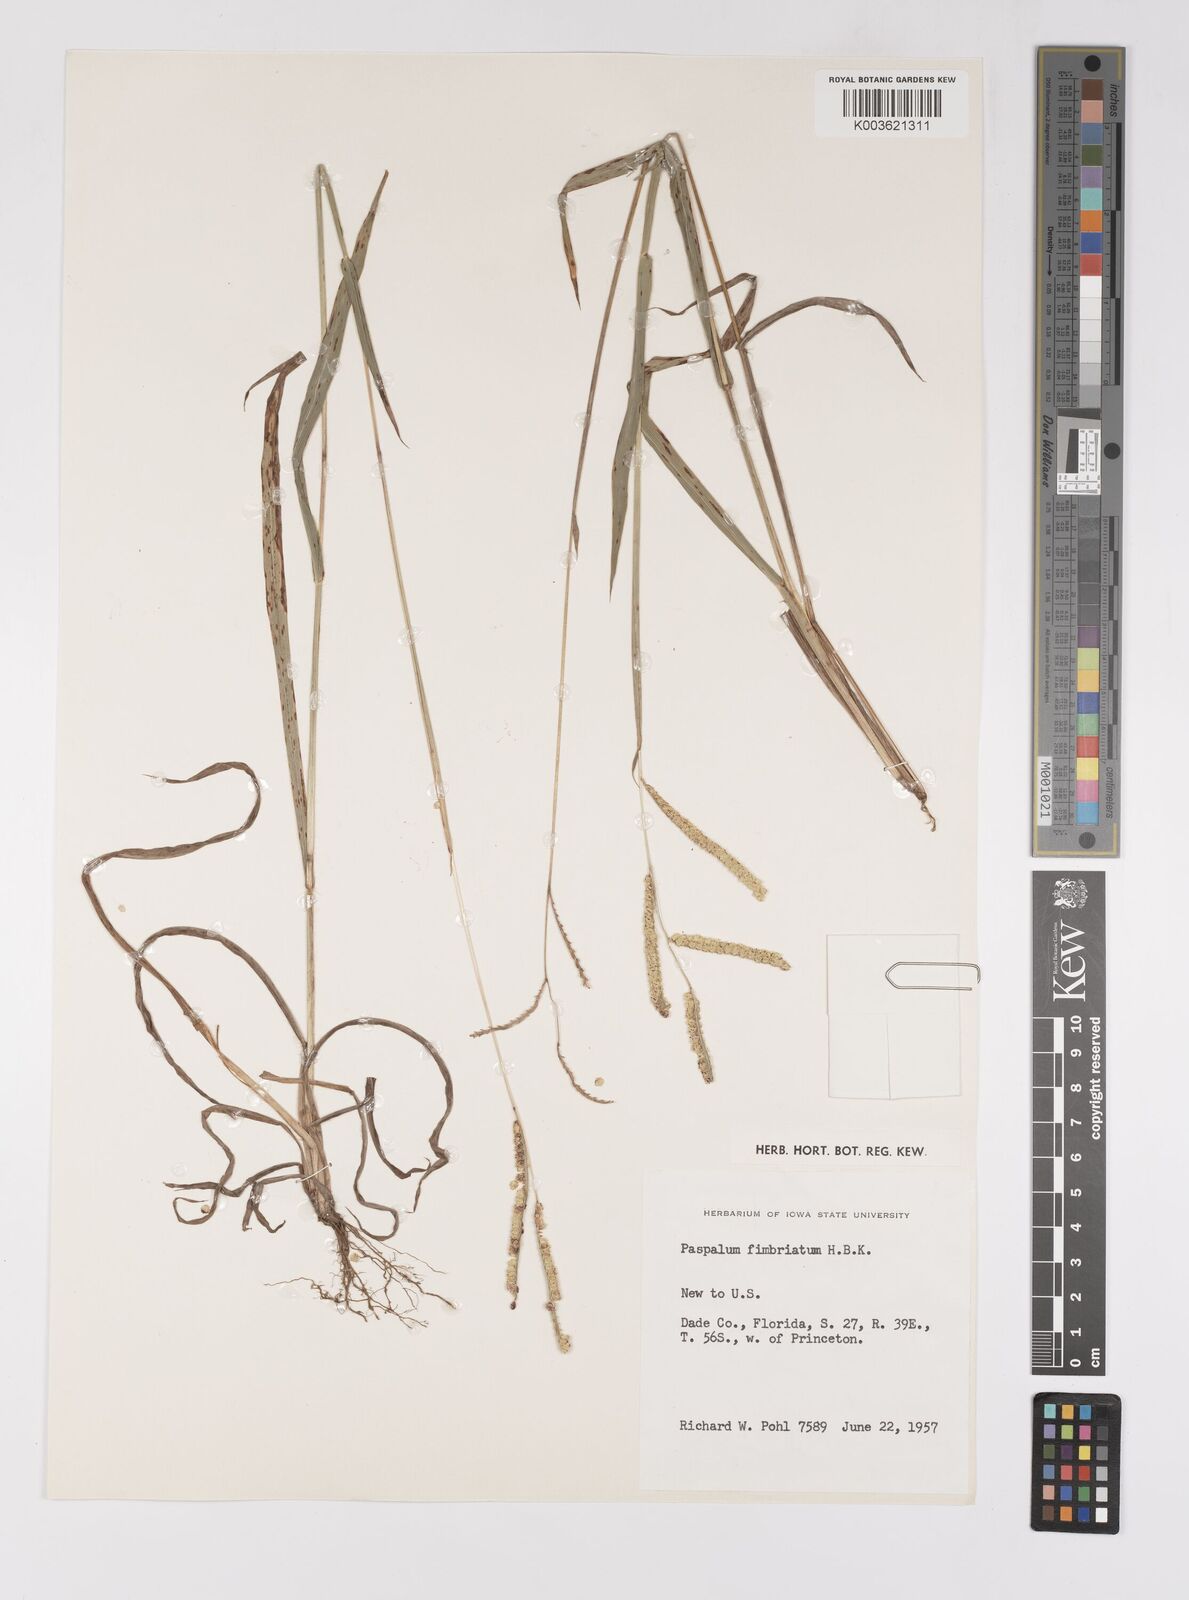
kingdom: Plantae
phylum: Tracheophyta
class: Liliopsida
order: Poales
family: Poaceae
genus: Paspalum
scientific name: Paspalum fimbriatum
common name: Panama crowngrass
